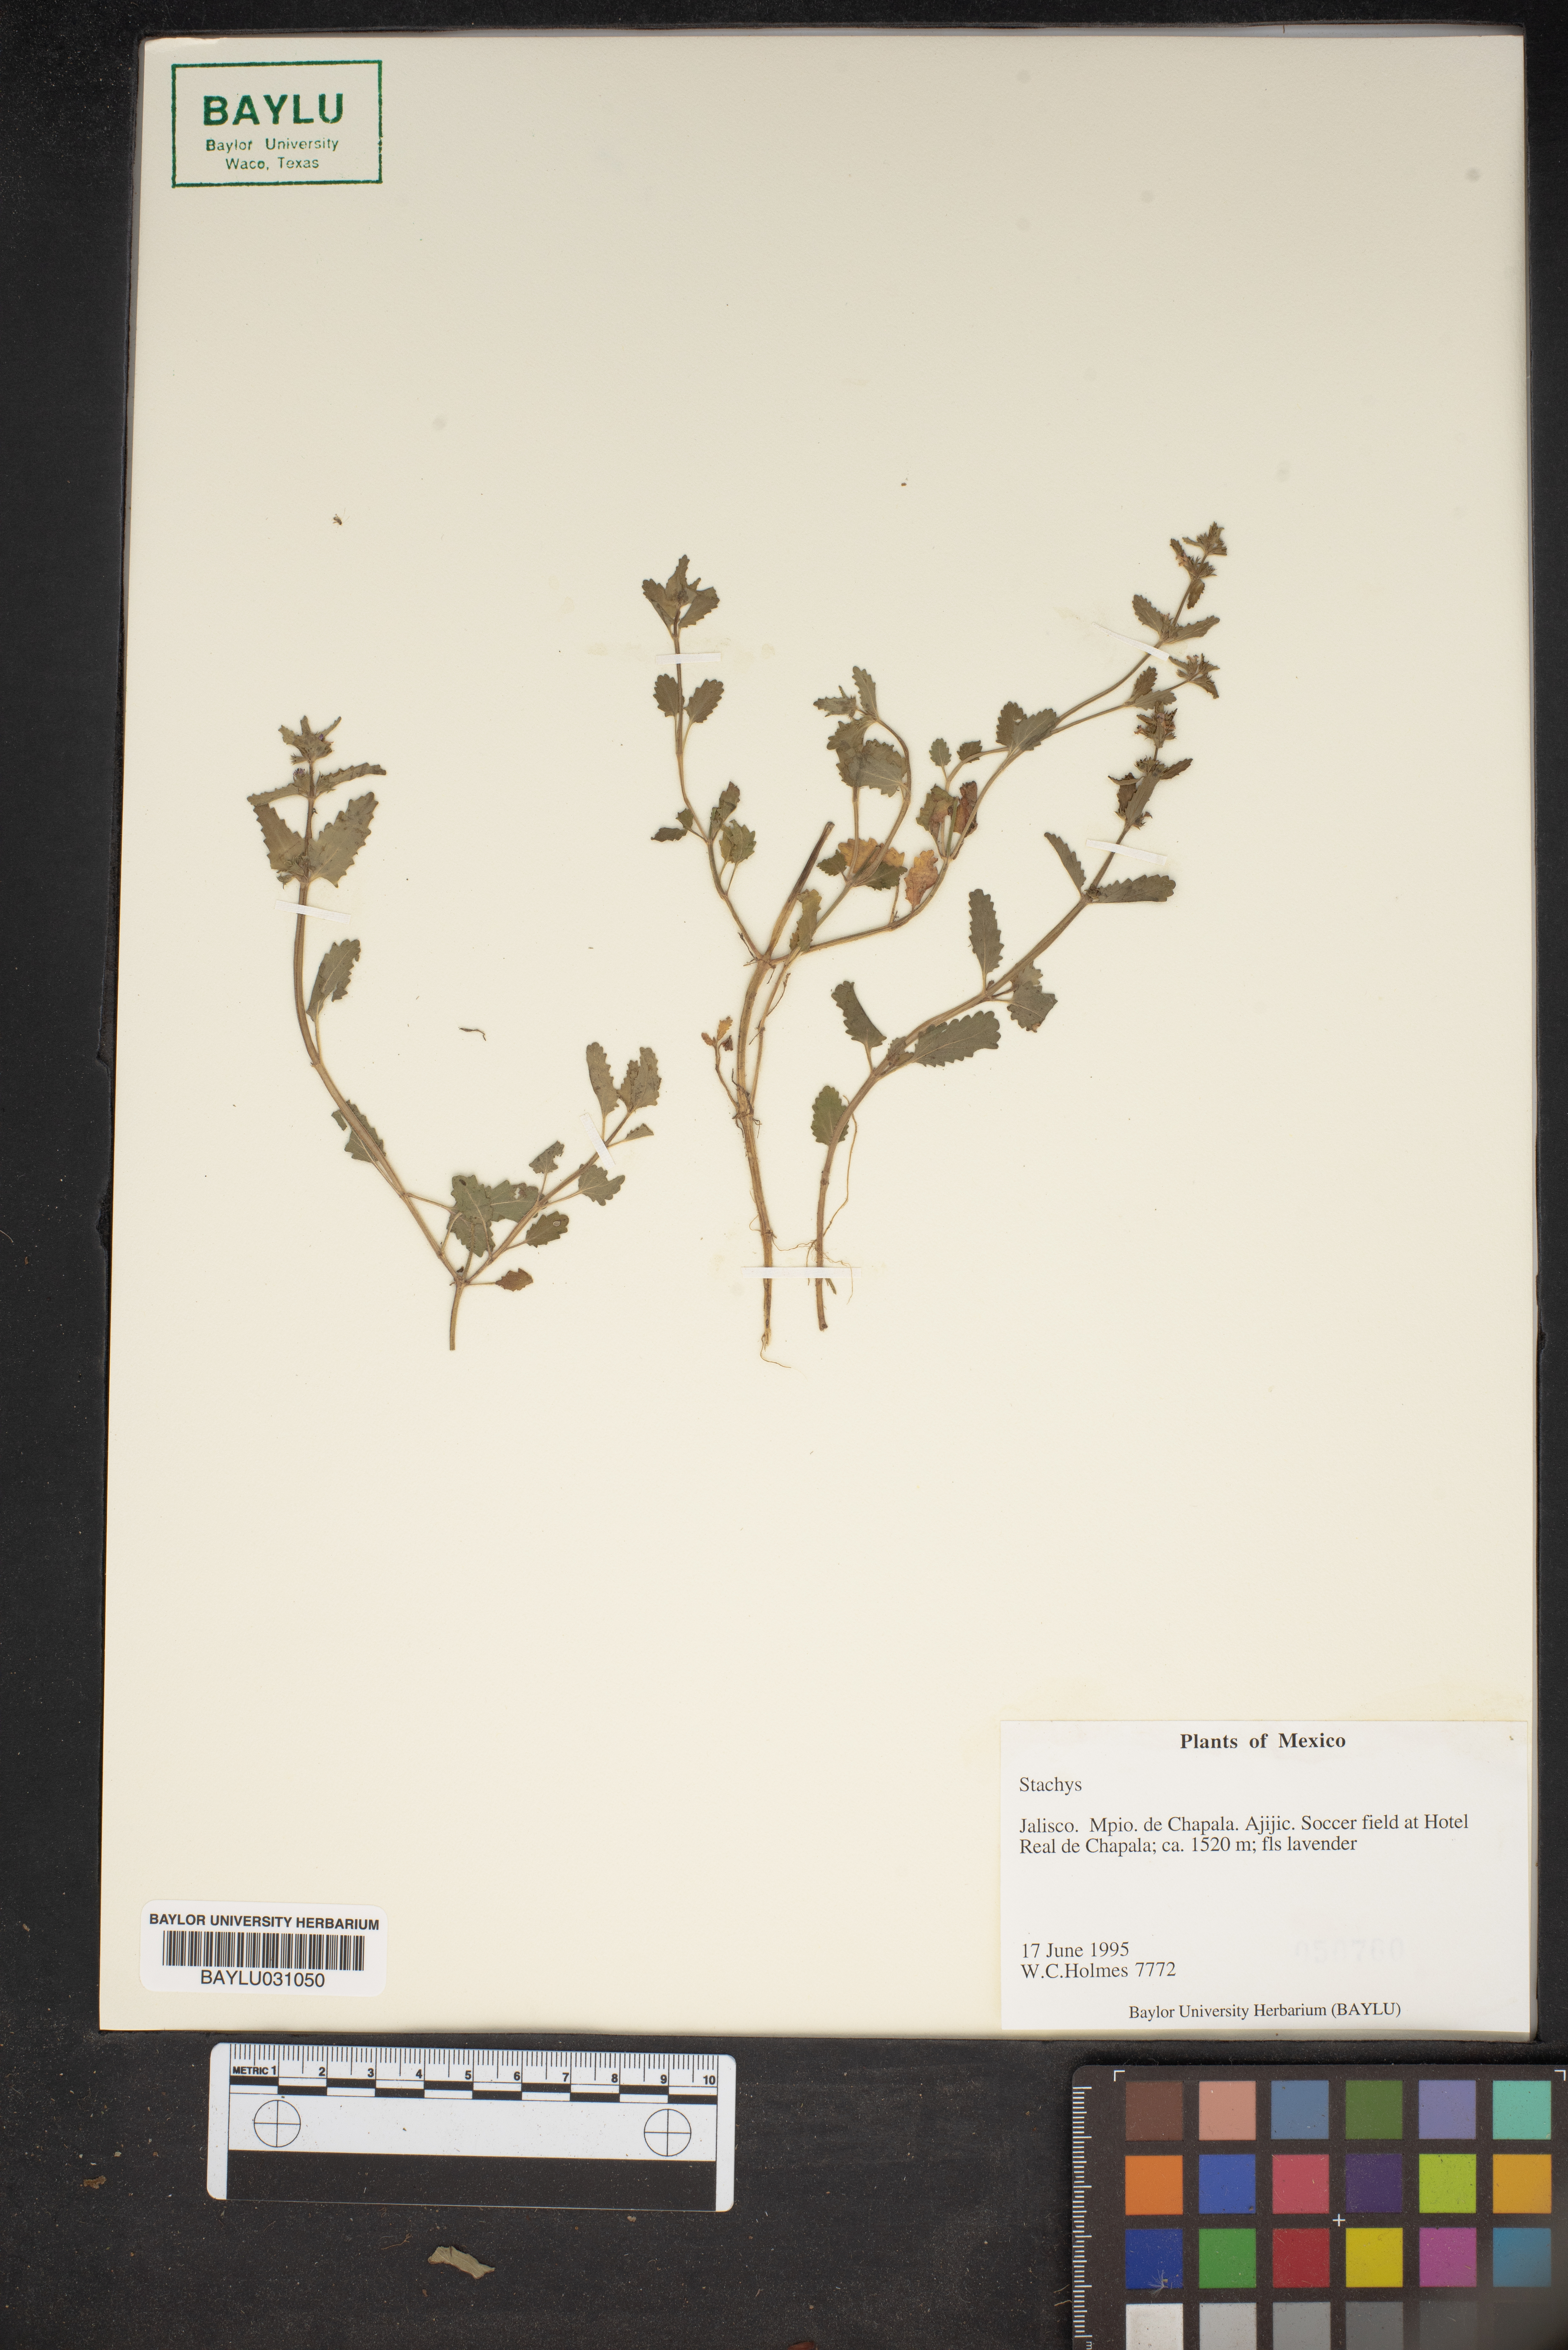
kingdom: Plantae
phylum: Tracheophyta
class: Magnoliopsida
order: Lamiales
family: Lamiaceae
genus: Stachys
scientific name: Stachys
